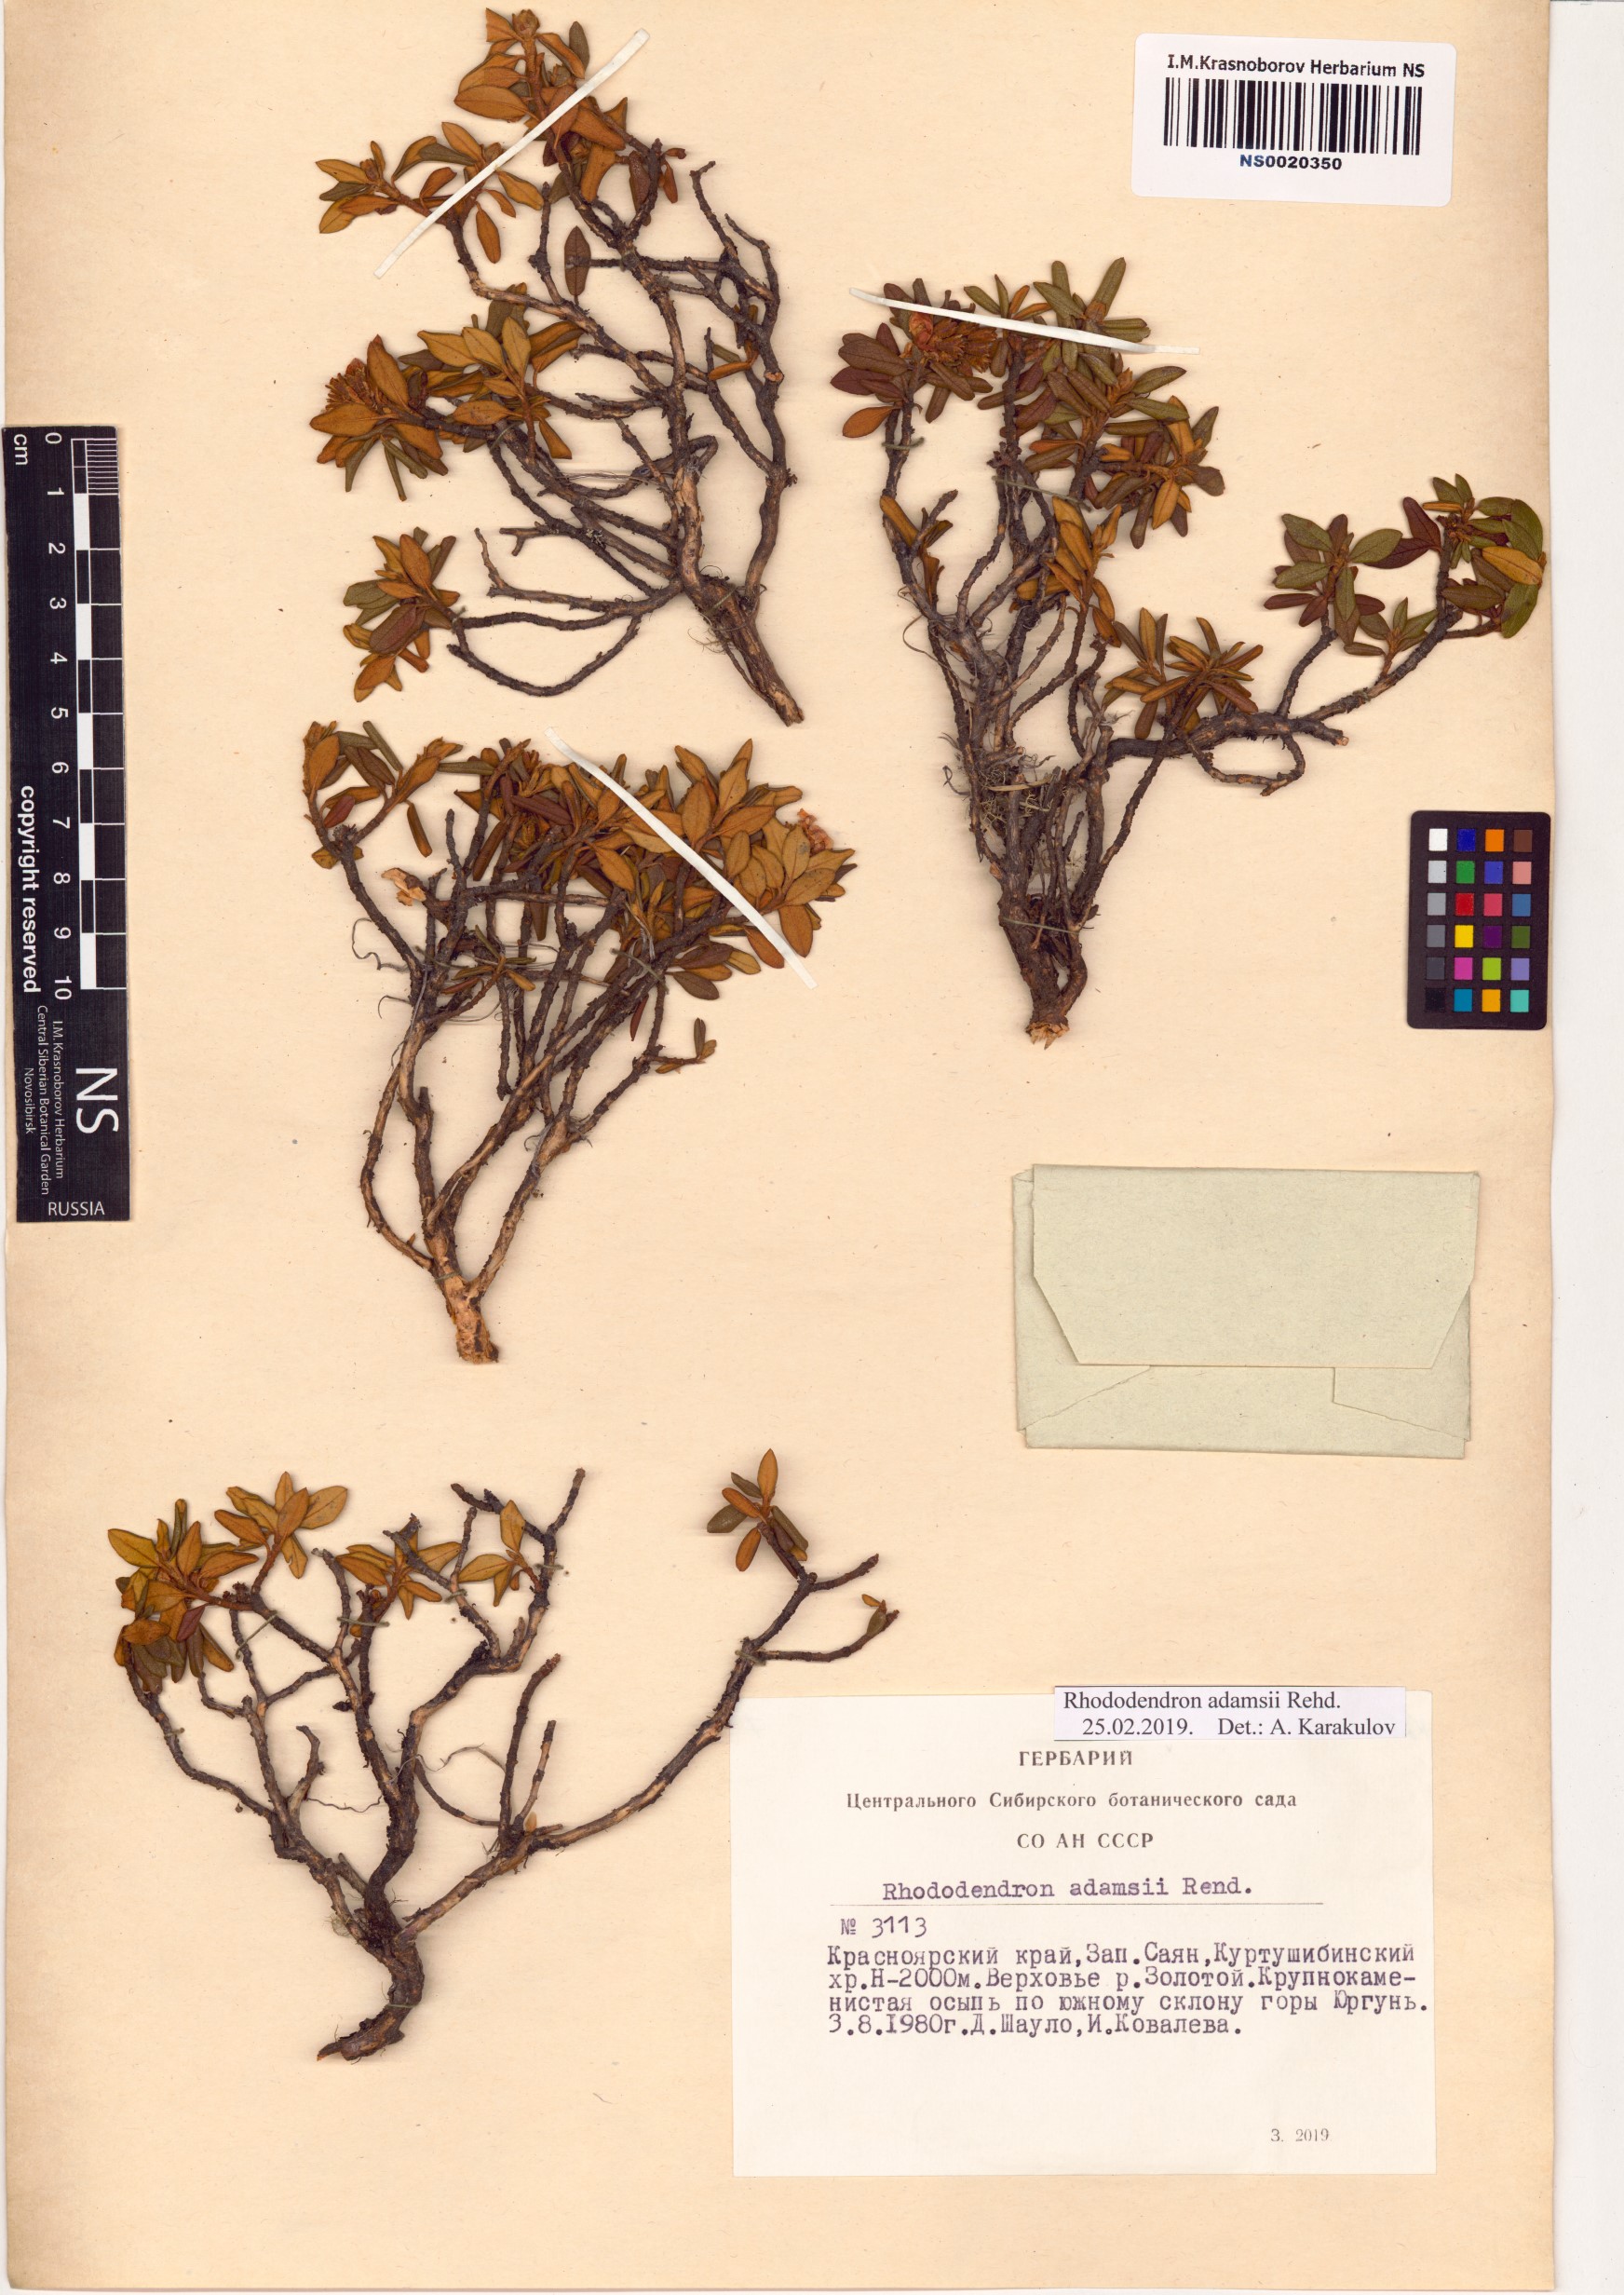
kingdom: Plantae
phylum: Tracheophyta
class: Magnoliopsida
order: Ericales
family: Ericaceae
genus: Rhododendron
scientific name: Rhododendron adamsii
